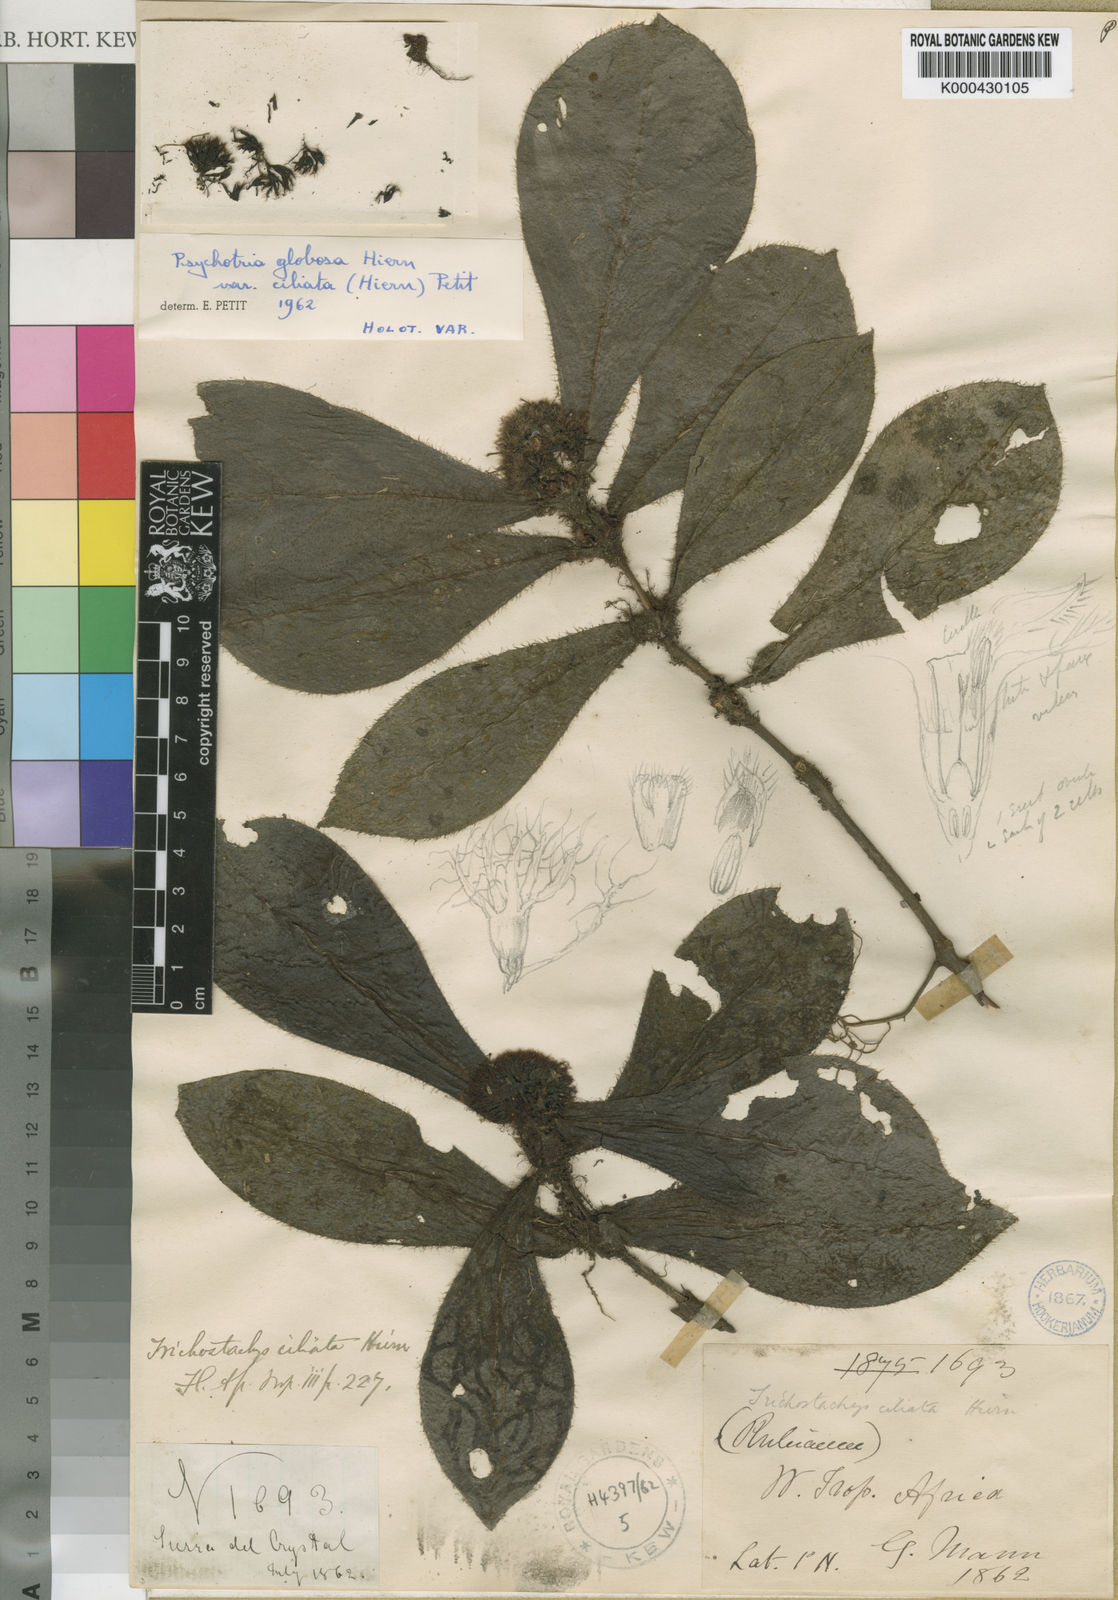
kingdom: Plantae
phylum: Tracheophyta
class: Magnoliopsida
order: Gentianales
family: Rubiaceae
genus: Psychotria
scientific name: Psychotria globosa
